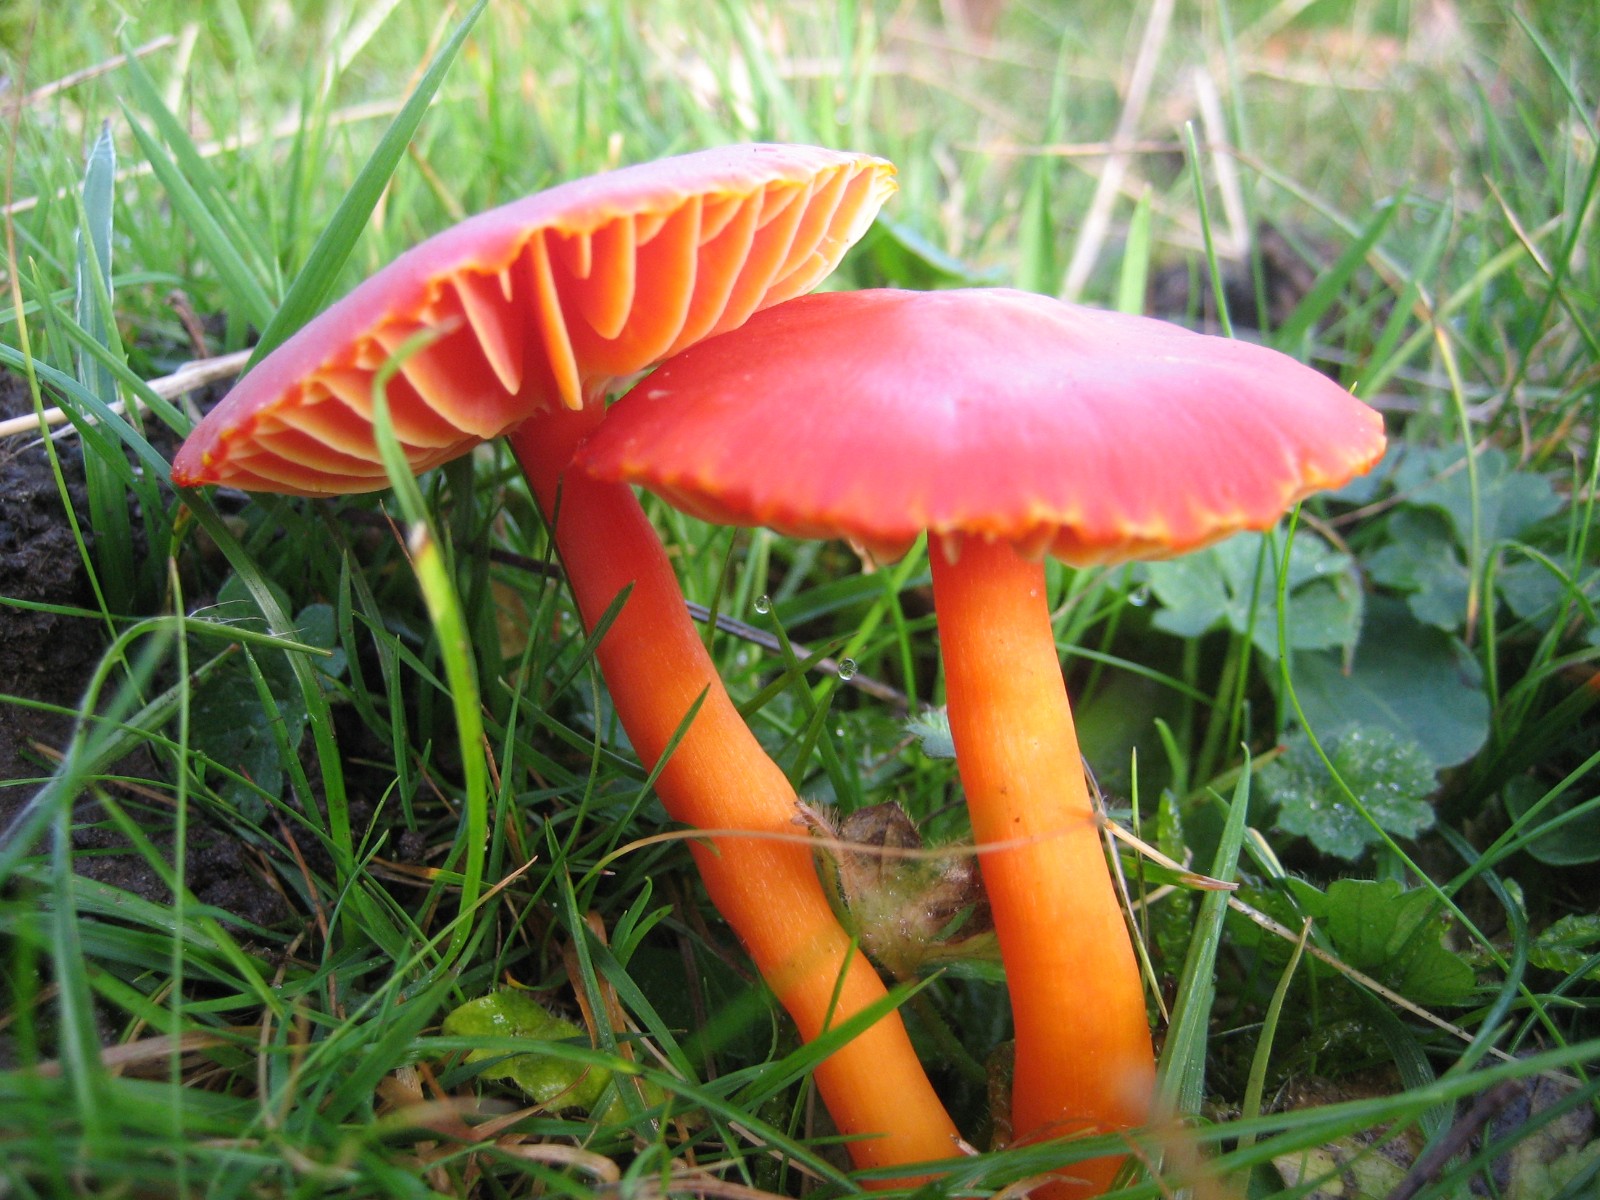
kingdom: Fungi
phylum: Basidiomycota
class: Agaricomycetes
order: Agaricales
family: Hygrophoraceae
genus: Hygrocybe
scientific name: Hygrocybe coccinea
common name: cinnober-vokshat
